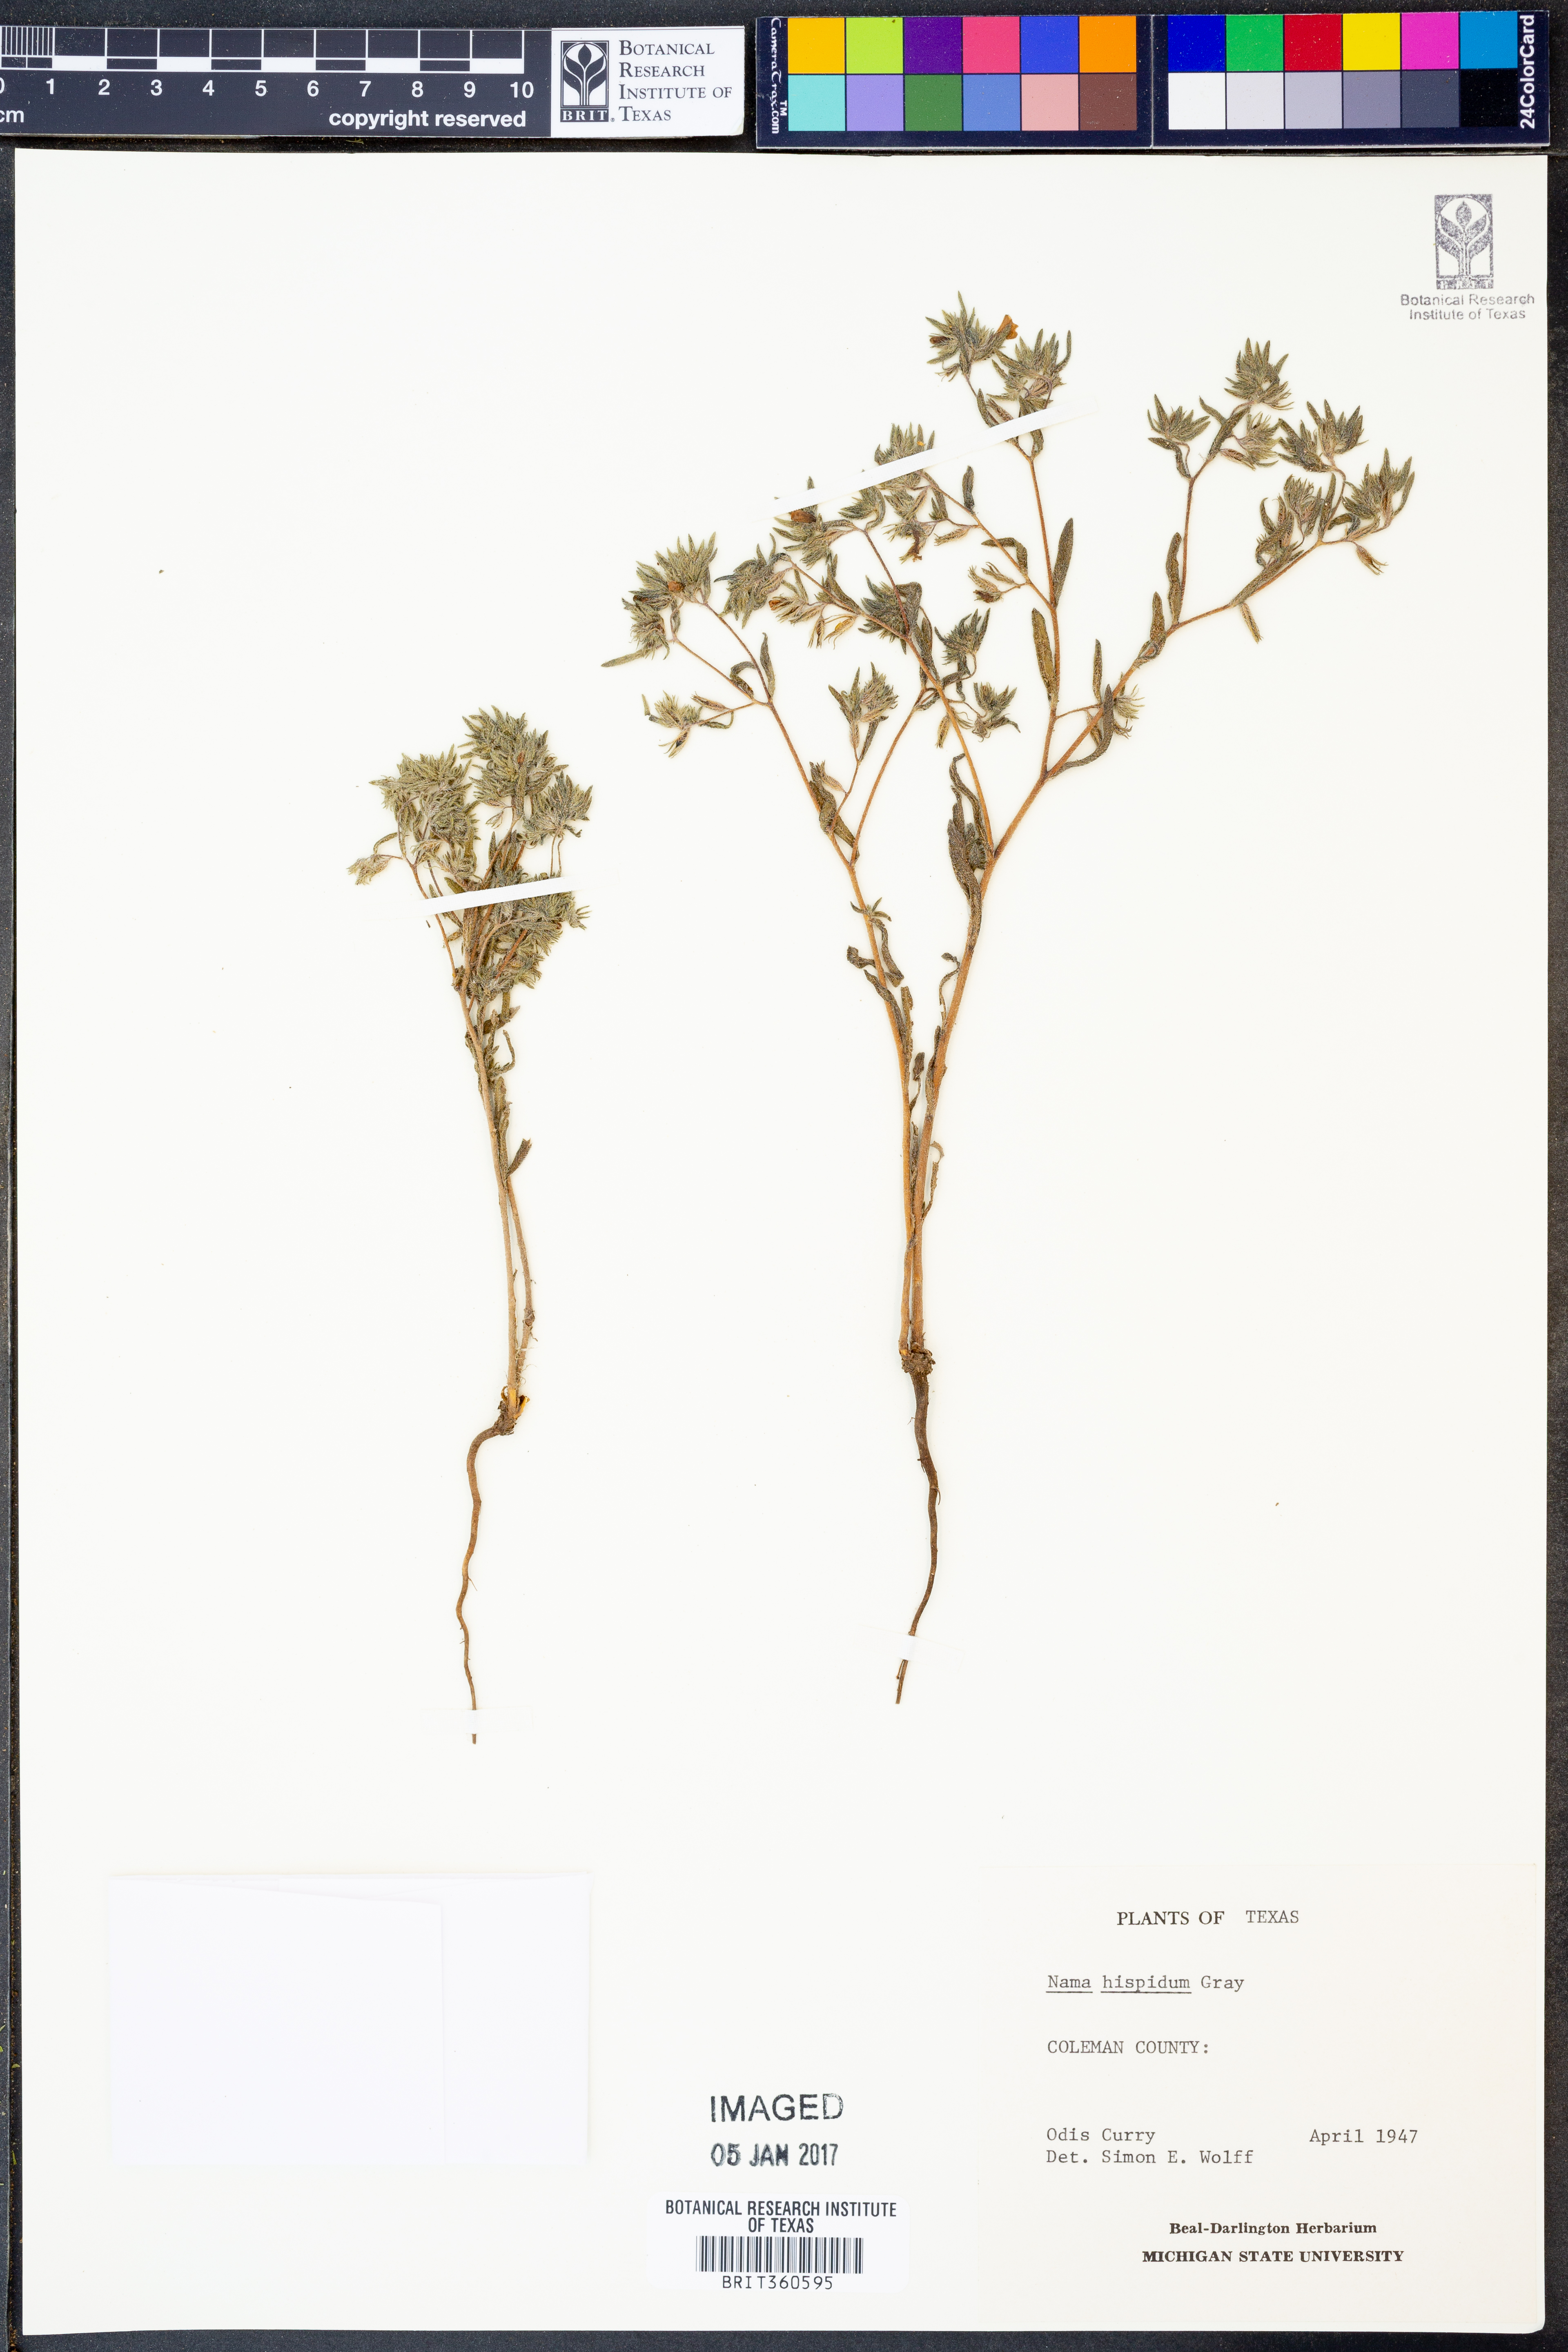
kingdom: Plantae
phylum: Tracheophyta
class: Magnoliopsida
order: Boraginales
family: Namaceae
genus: Nama
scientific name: Nama hispida
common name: Bristly nama
